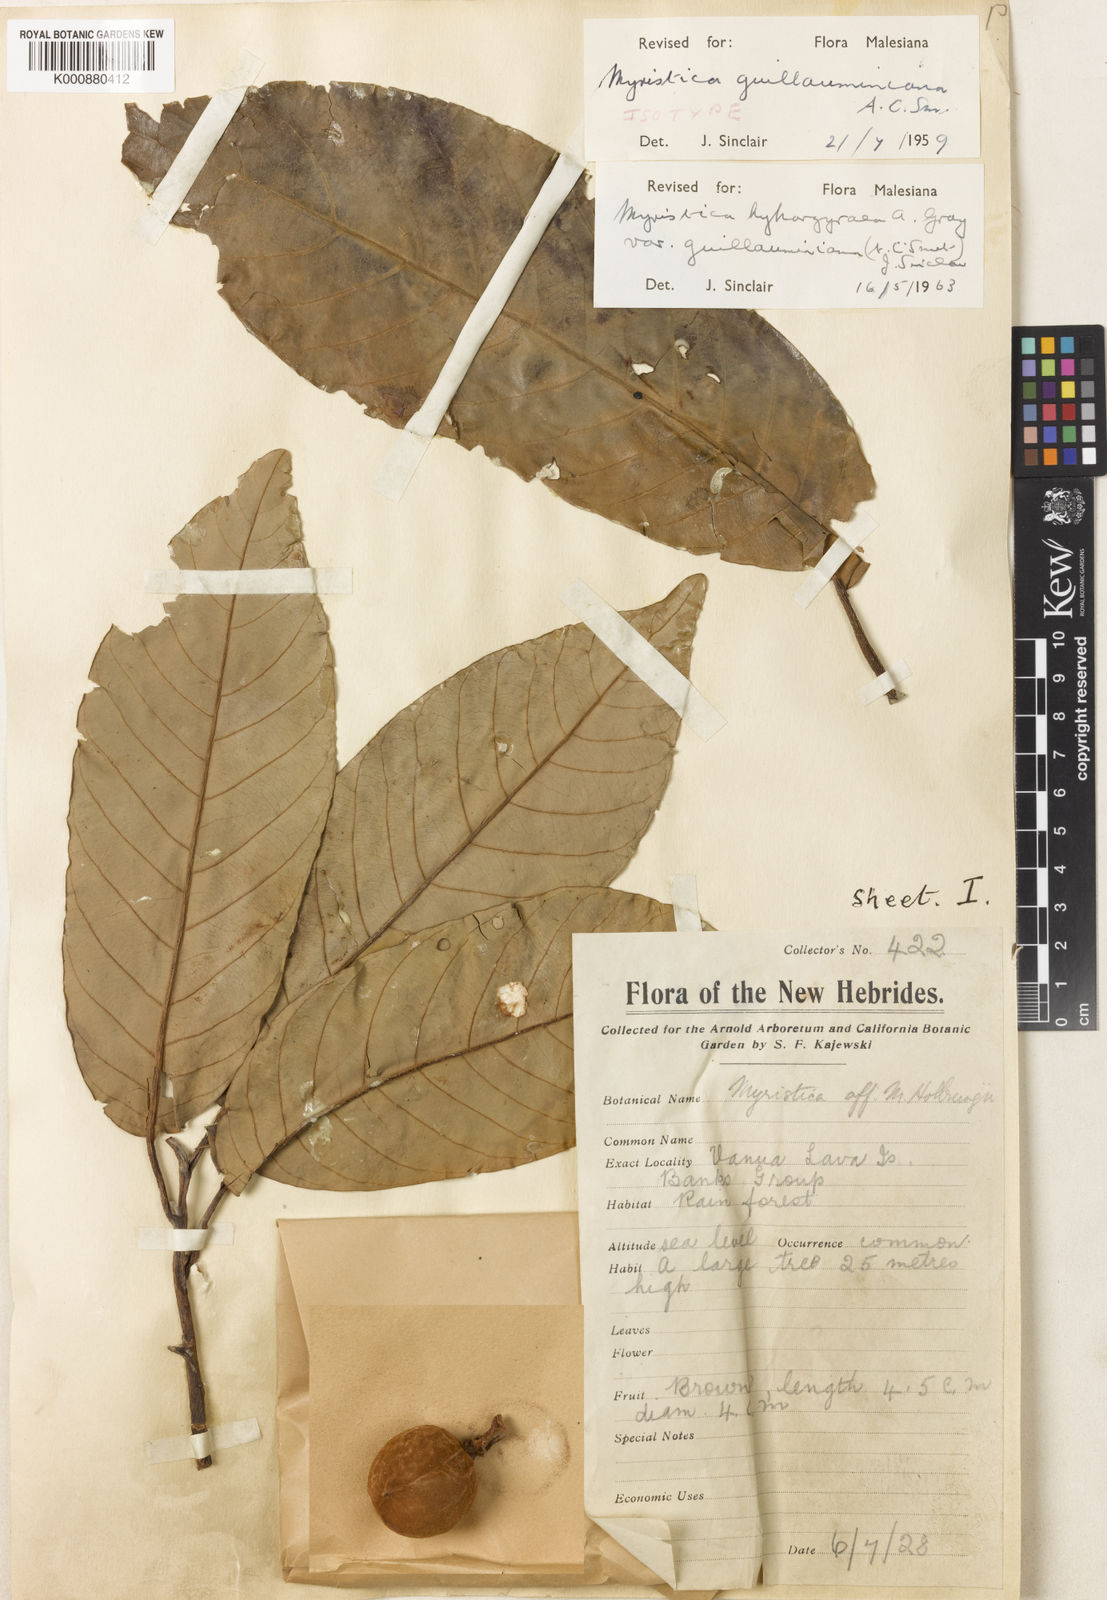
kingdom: Plantae
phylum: Tracheophyta
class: Magnoliopsida
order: Magnoliales
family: Myristicaceae
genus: Myristica
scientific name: Myristica hypargyraea
